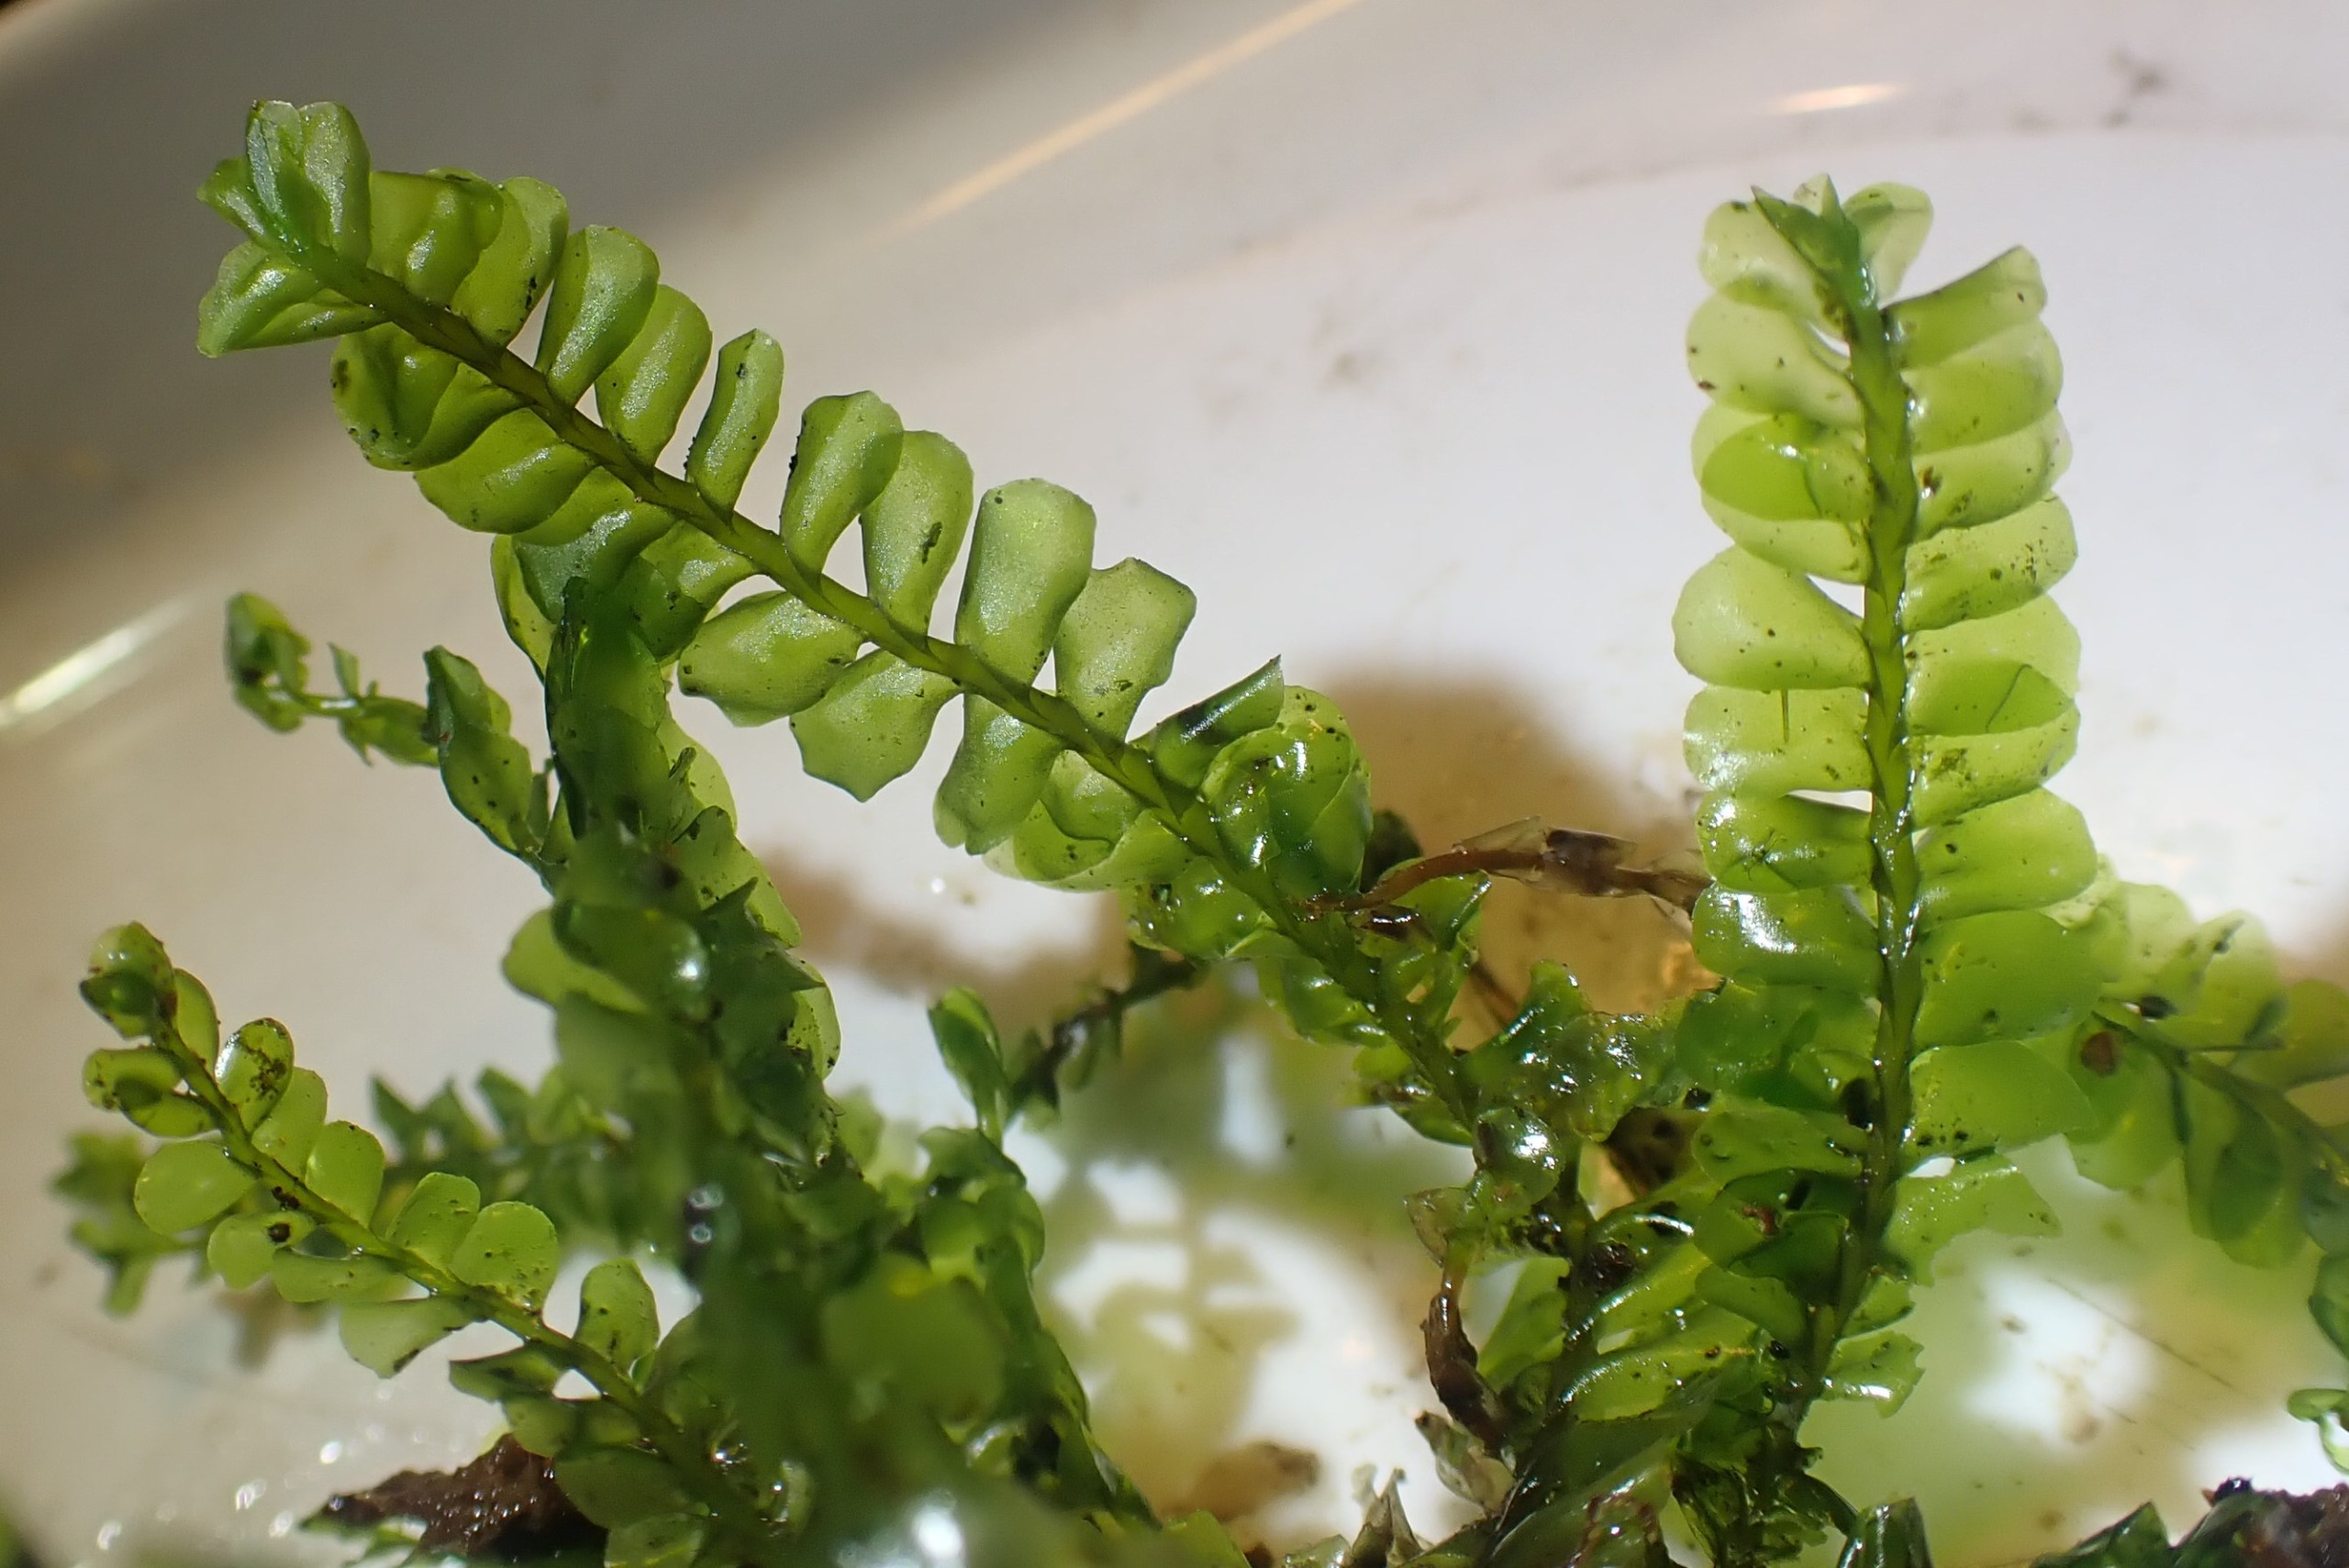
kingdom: Plantae
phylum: Marchantiophyta
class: Jungermanniopsida
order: Jungermanniales
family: Plagiochilaceae
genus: Plagiochila
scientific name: Plagiochila asplenioides
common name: Radeløv-hindeblad
